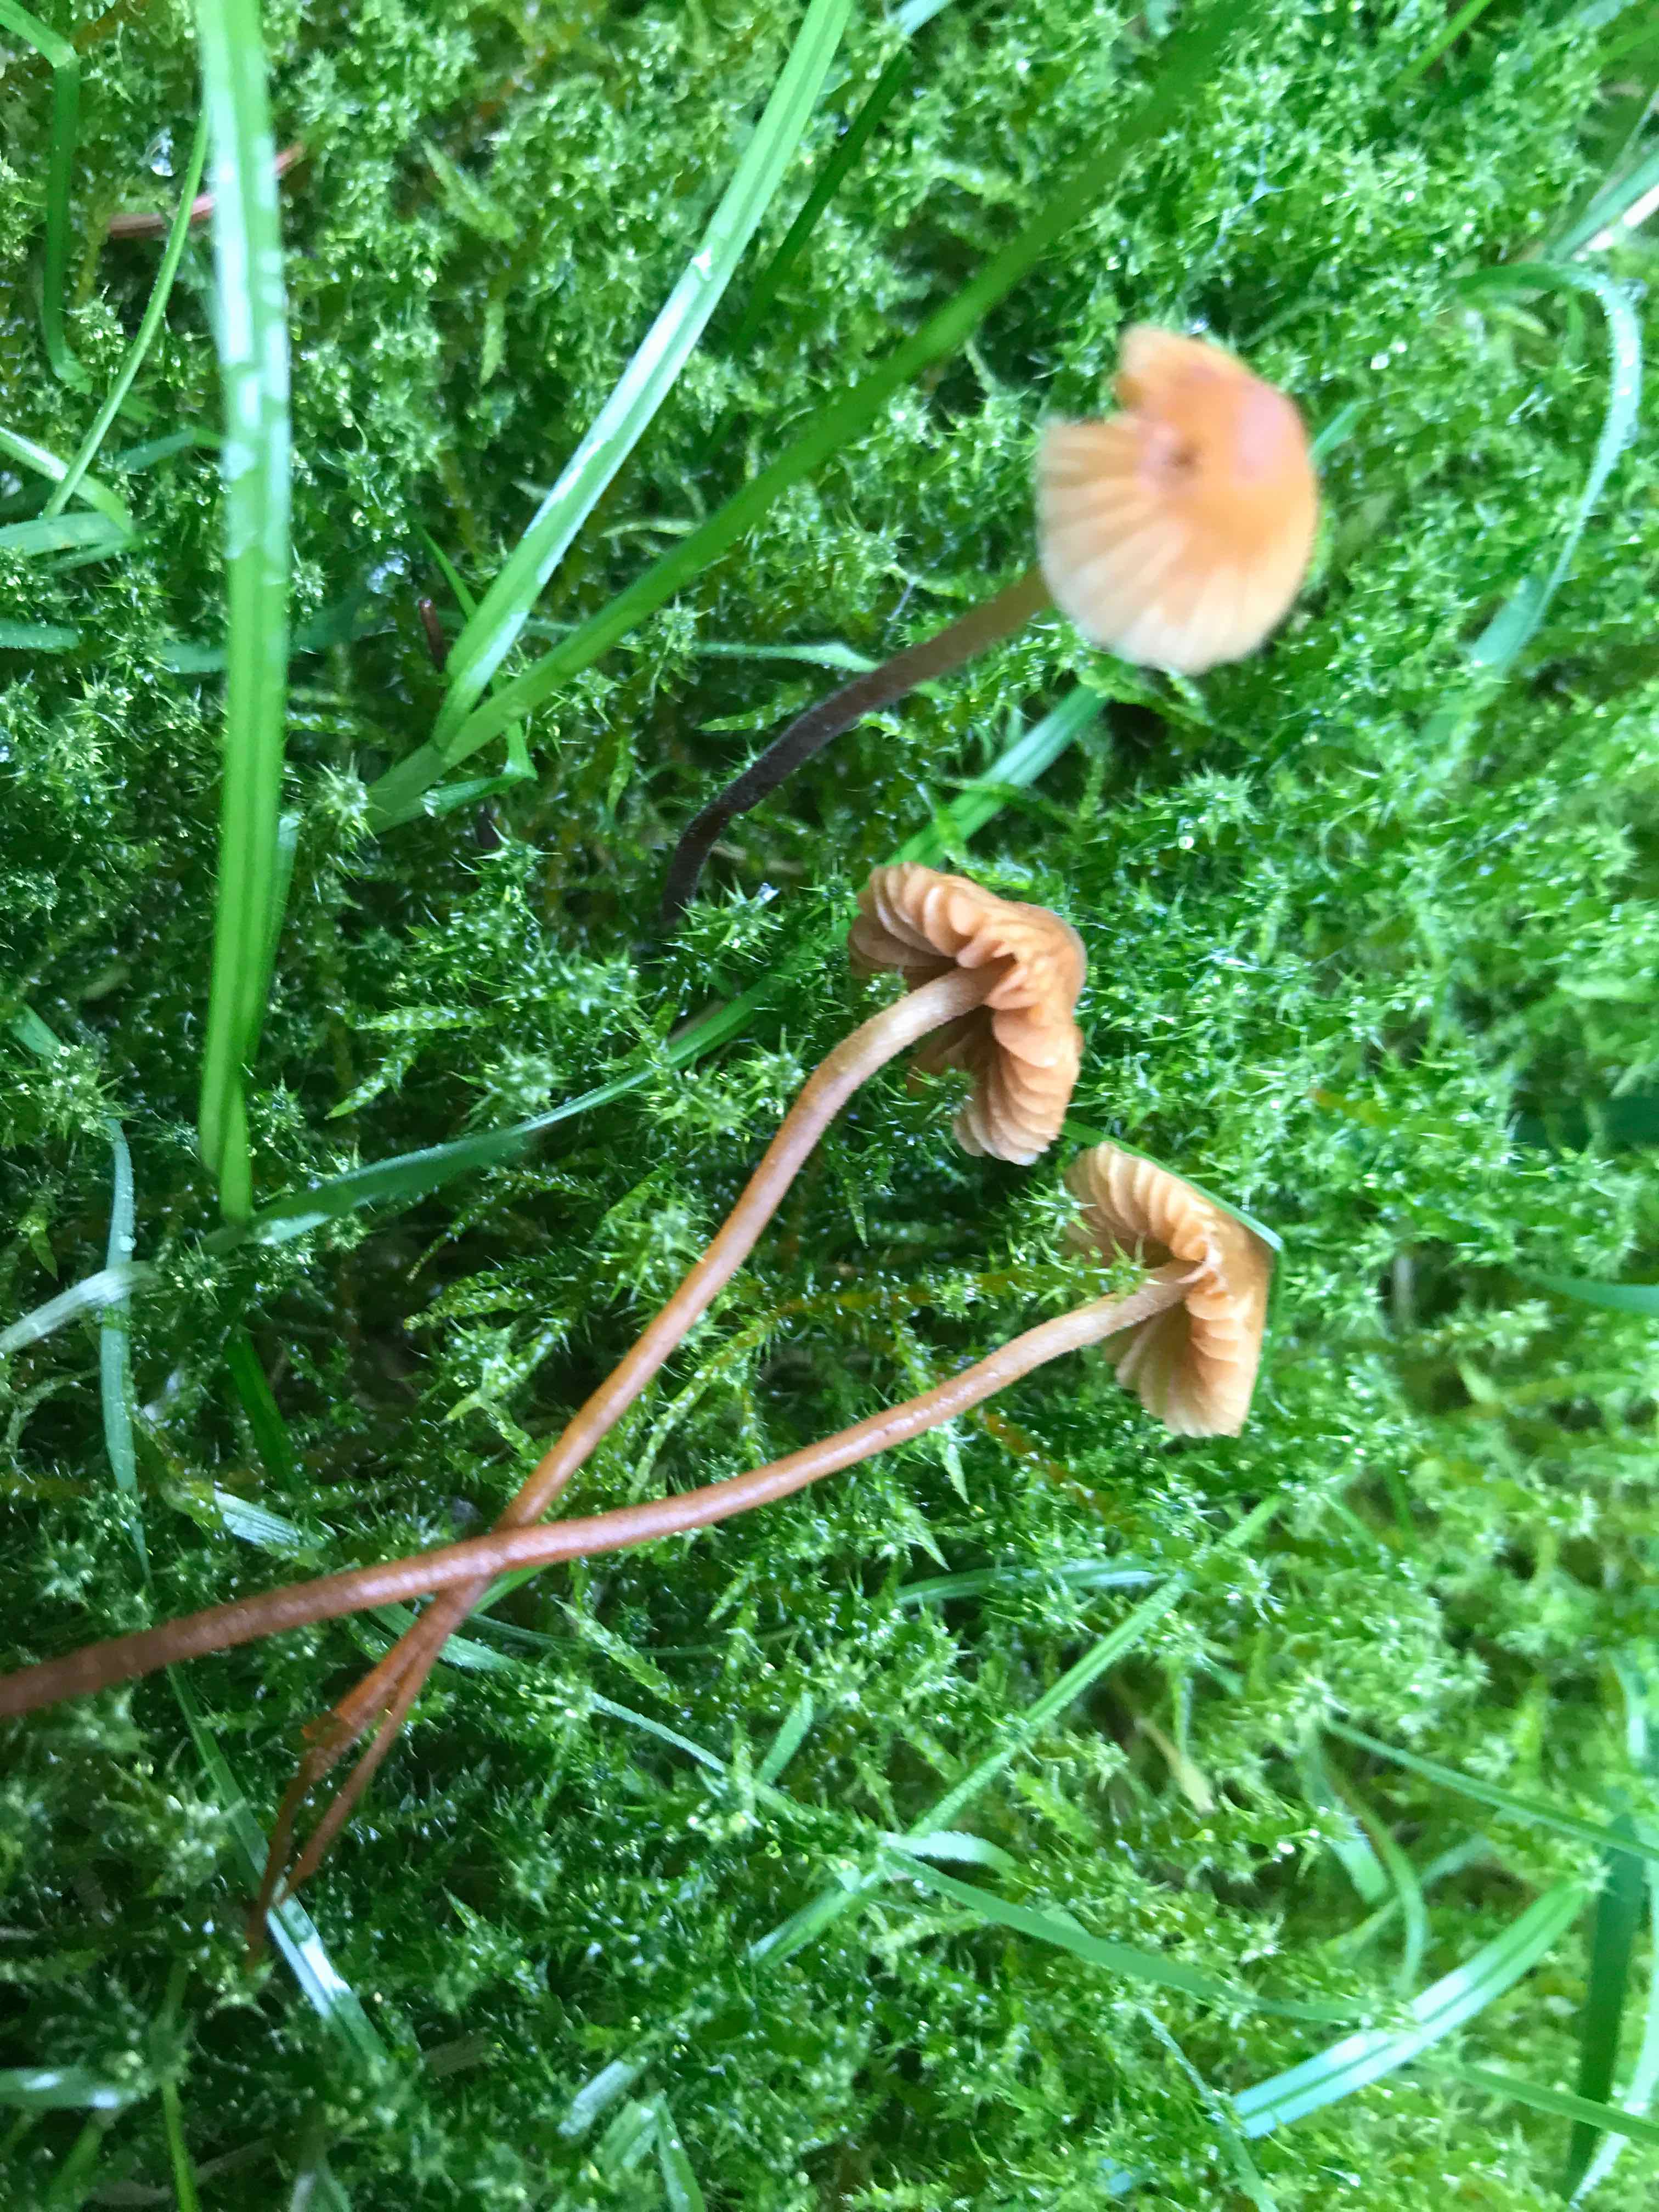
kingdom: Fungi
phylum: Basidiomycota
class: Agaricomycetes
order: Agaricales
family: Hymenogastraceae
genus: Galerina
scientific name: Galerina
